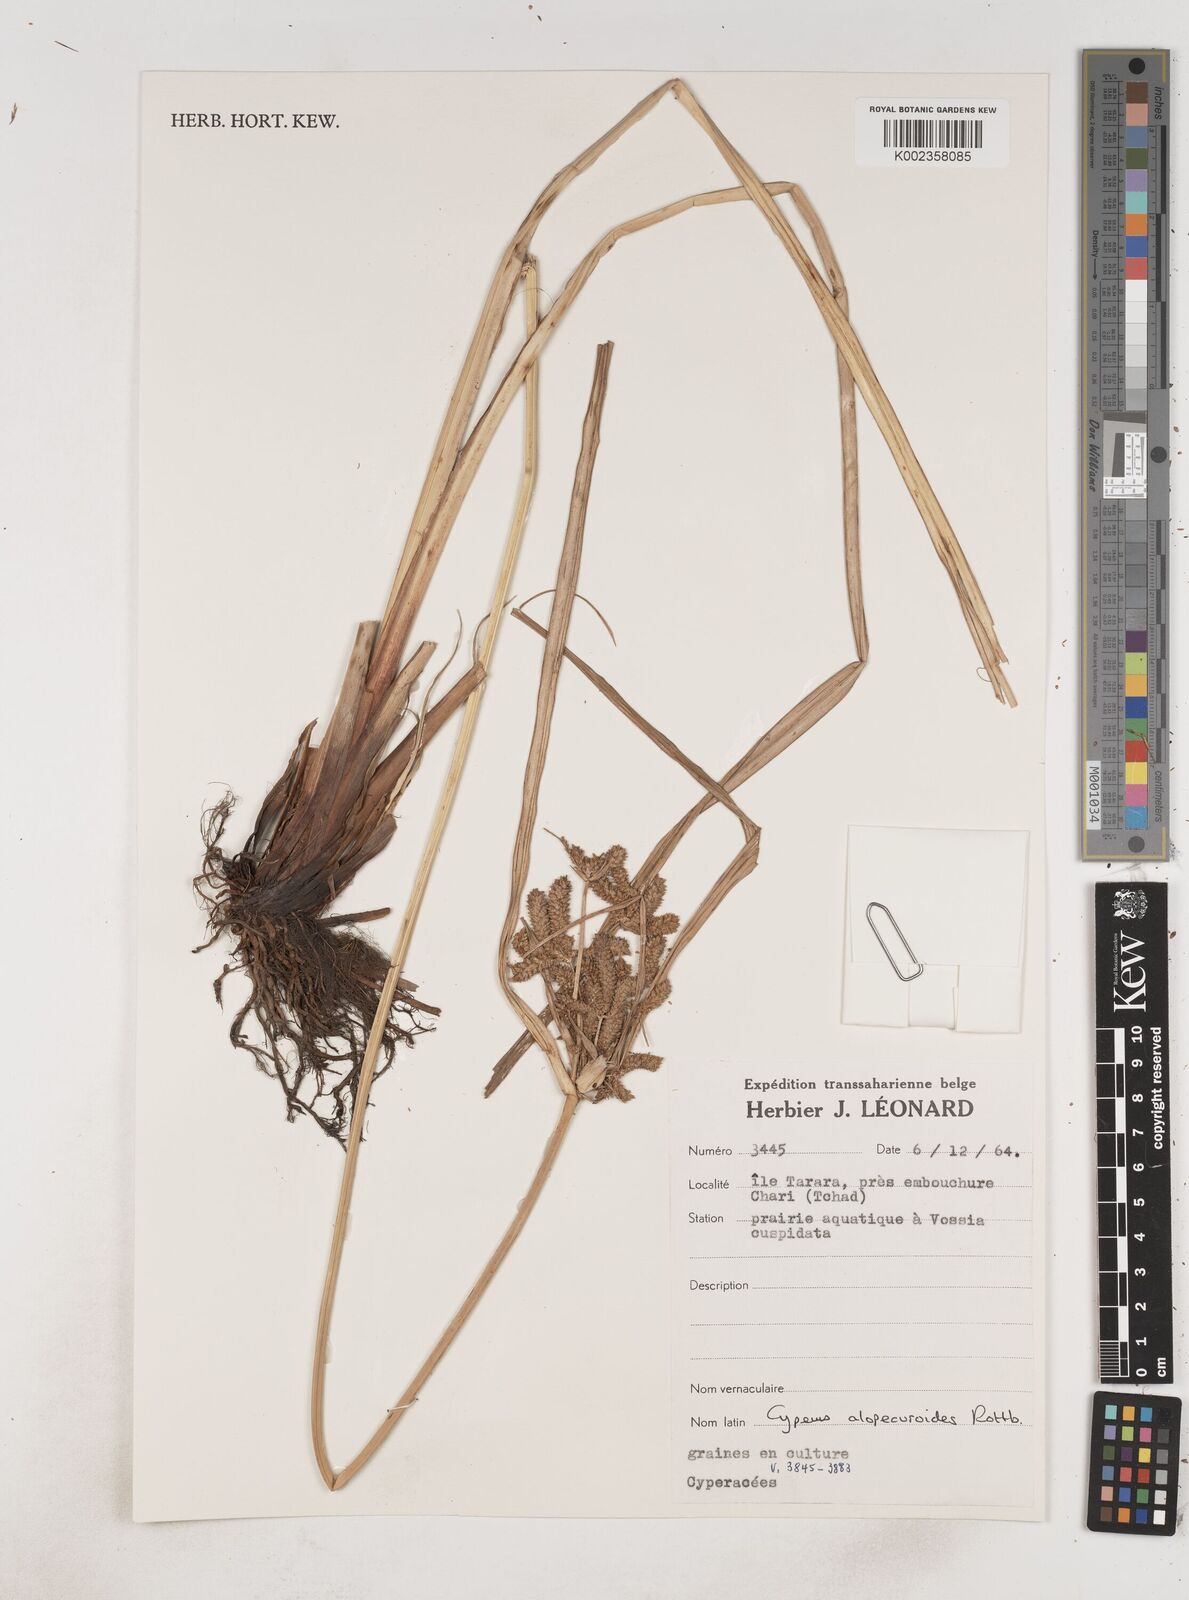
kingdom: Plantae
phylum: Tracheophyta
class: Liliopsida
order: Poales
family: Cyperaceae
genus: Cyperus
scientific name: Cyperus alopecuroides
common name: Foxtail flatsedge
